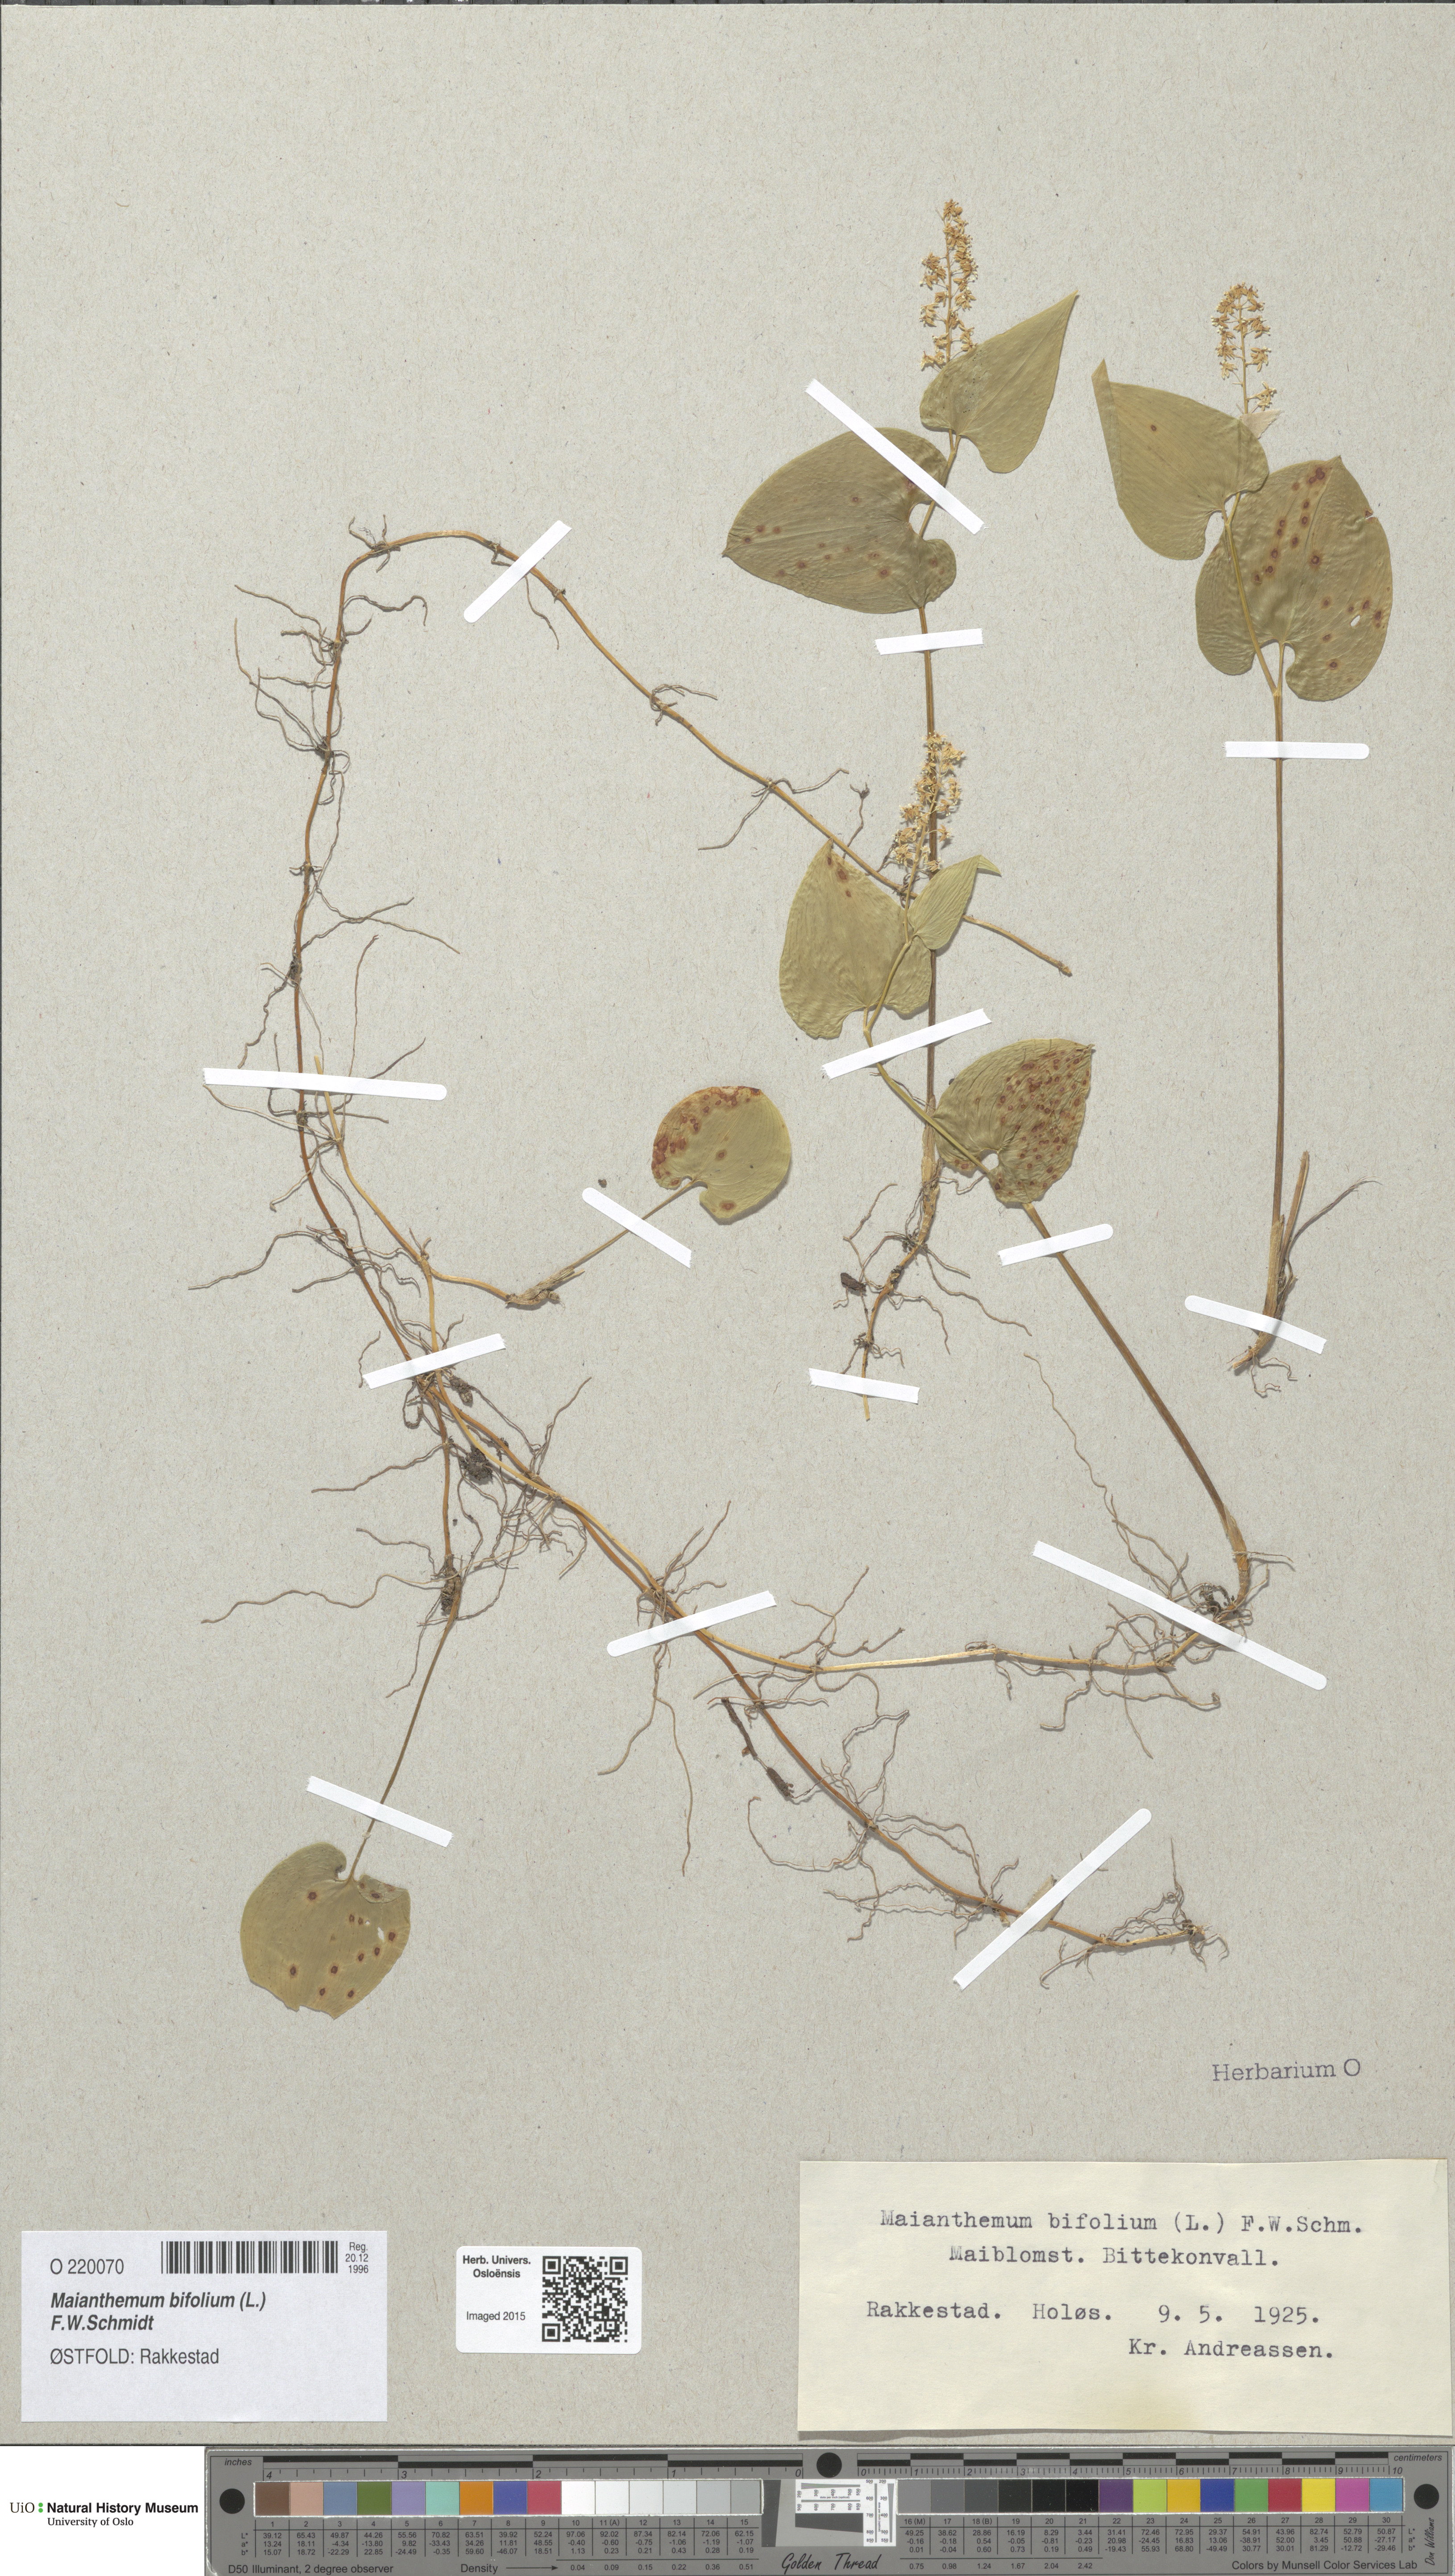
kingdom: Plantae
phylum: Tracheophyta
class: Liliopsida
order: Asparagales
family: Asparagaceae
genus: Maianthemum
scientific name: Maianthemum bifolium
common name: May lily
